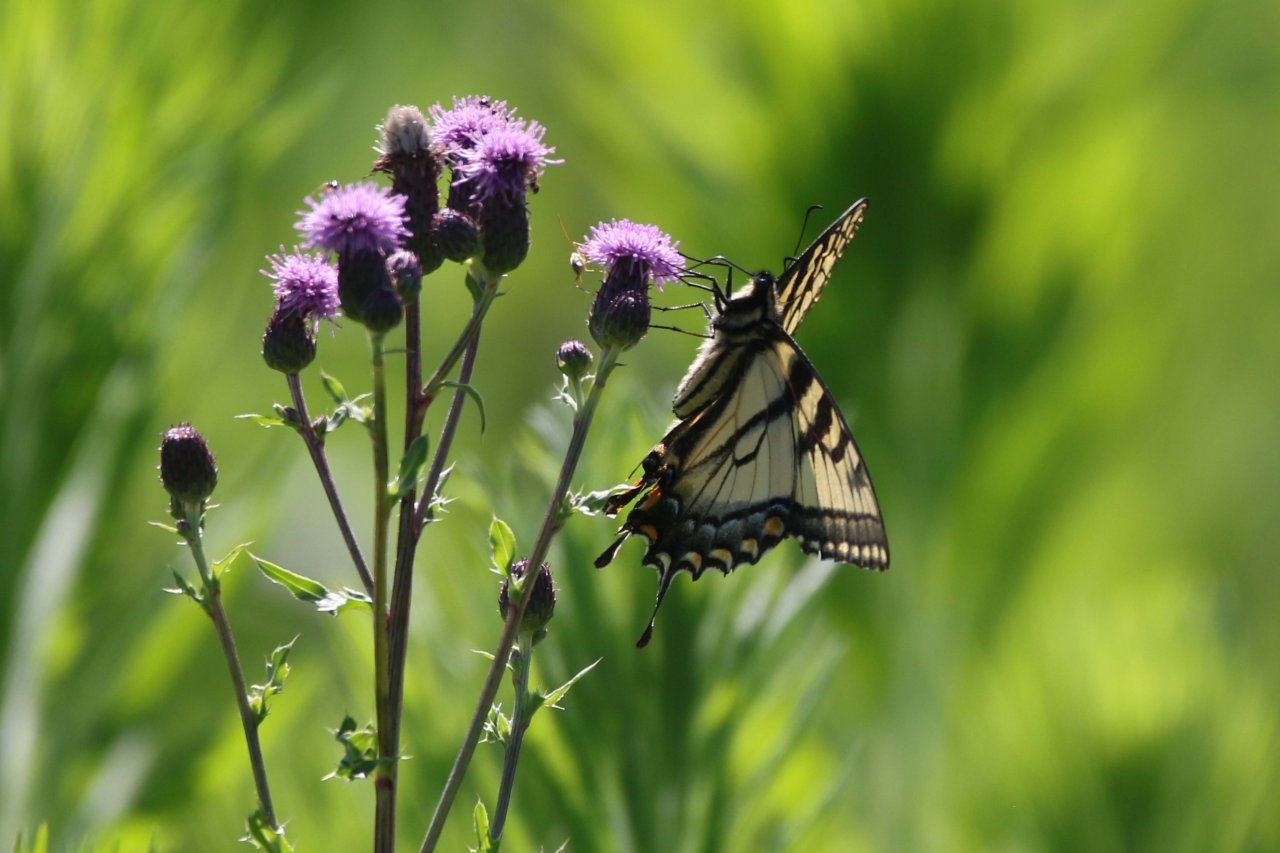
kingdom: Animalia
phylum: Arthropoda
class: Insecta
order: Lepidoptera
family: Papilionidae
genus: Pterourus
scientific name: Pterourus glaucus
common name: Eastern Tiger Swallowtail
